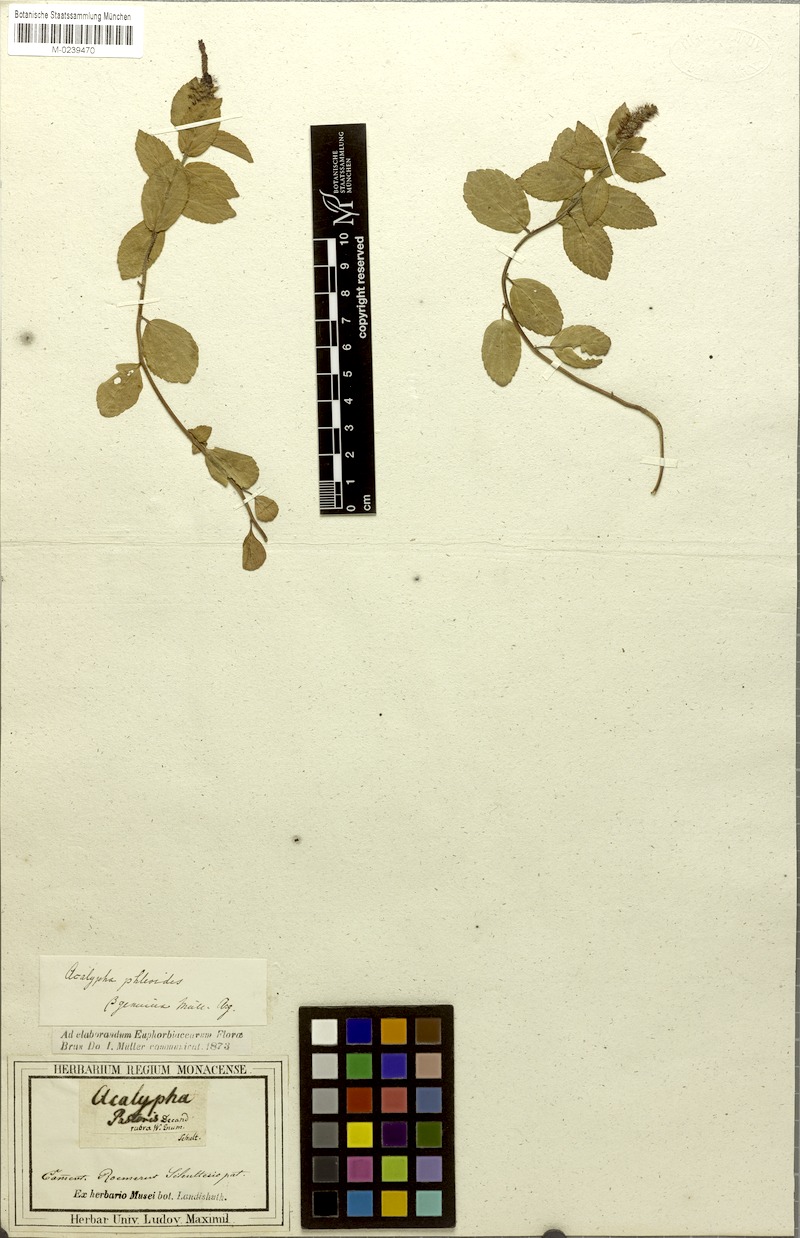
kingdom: Plantae
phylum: Tracheophyta
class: Magnoliopsida
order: Malpighiales
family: Euphorbiaceae
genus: Acalypha
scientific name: Acalypha phleoides
